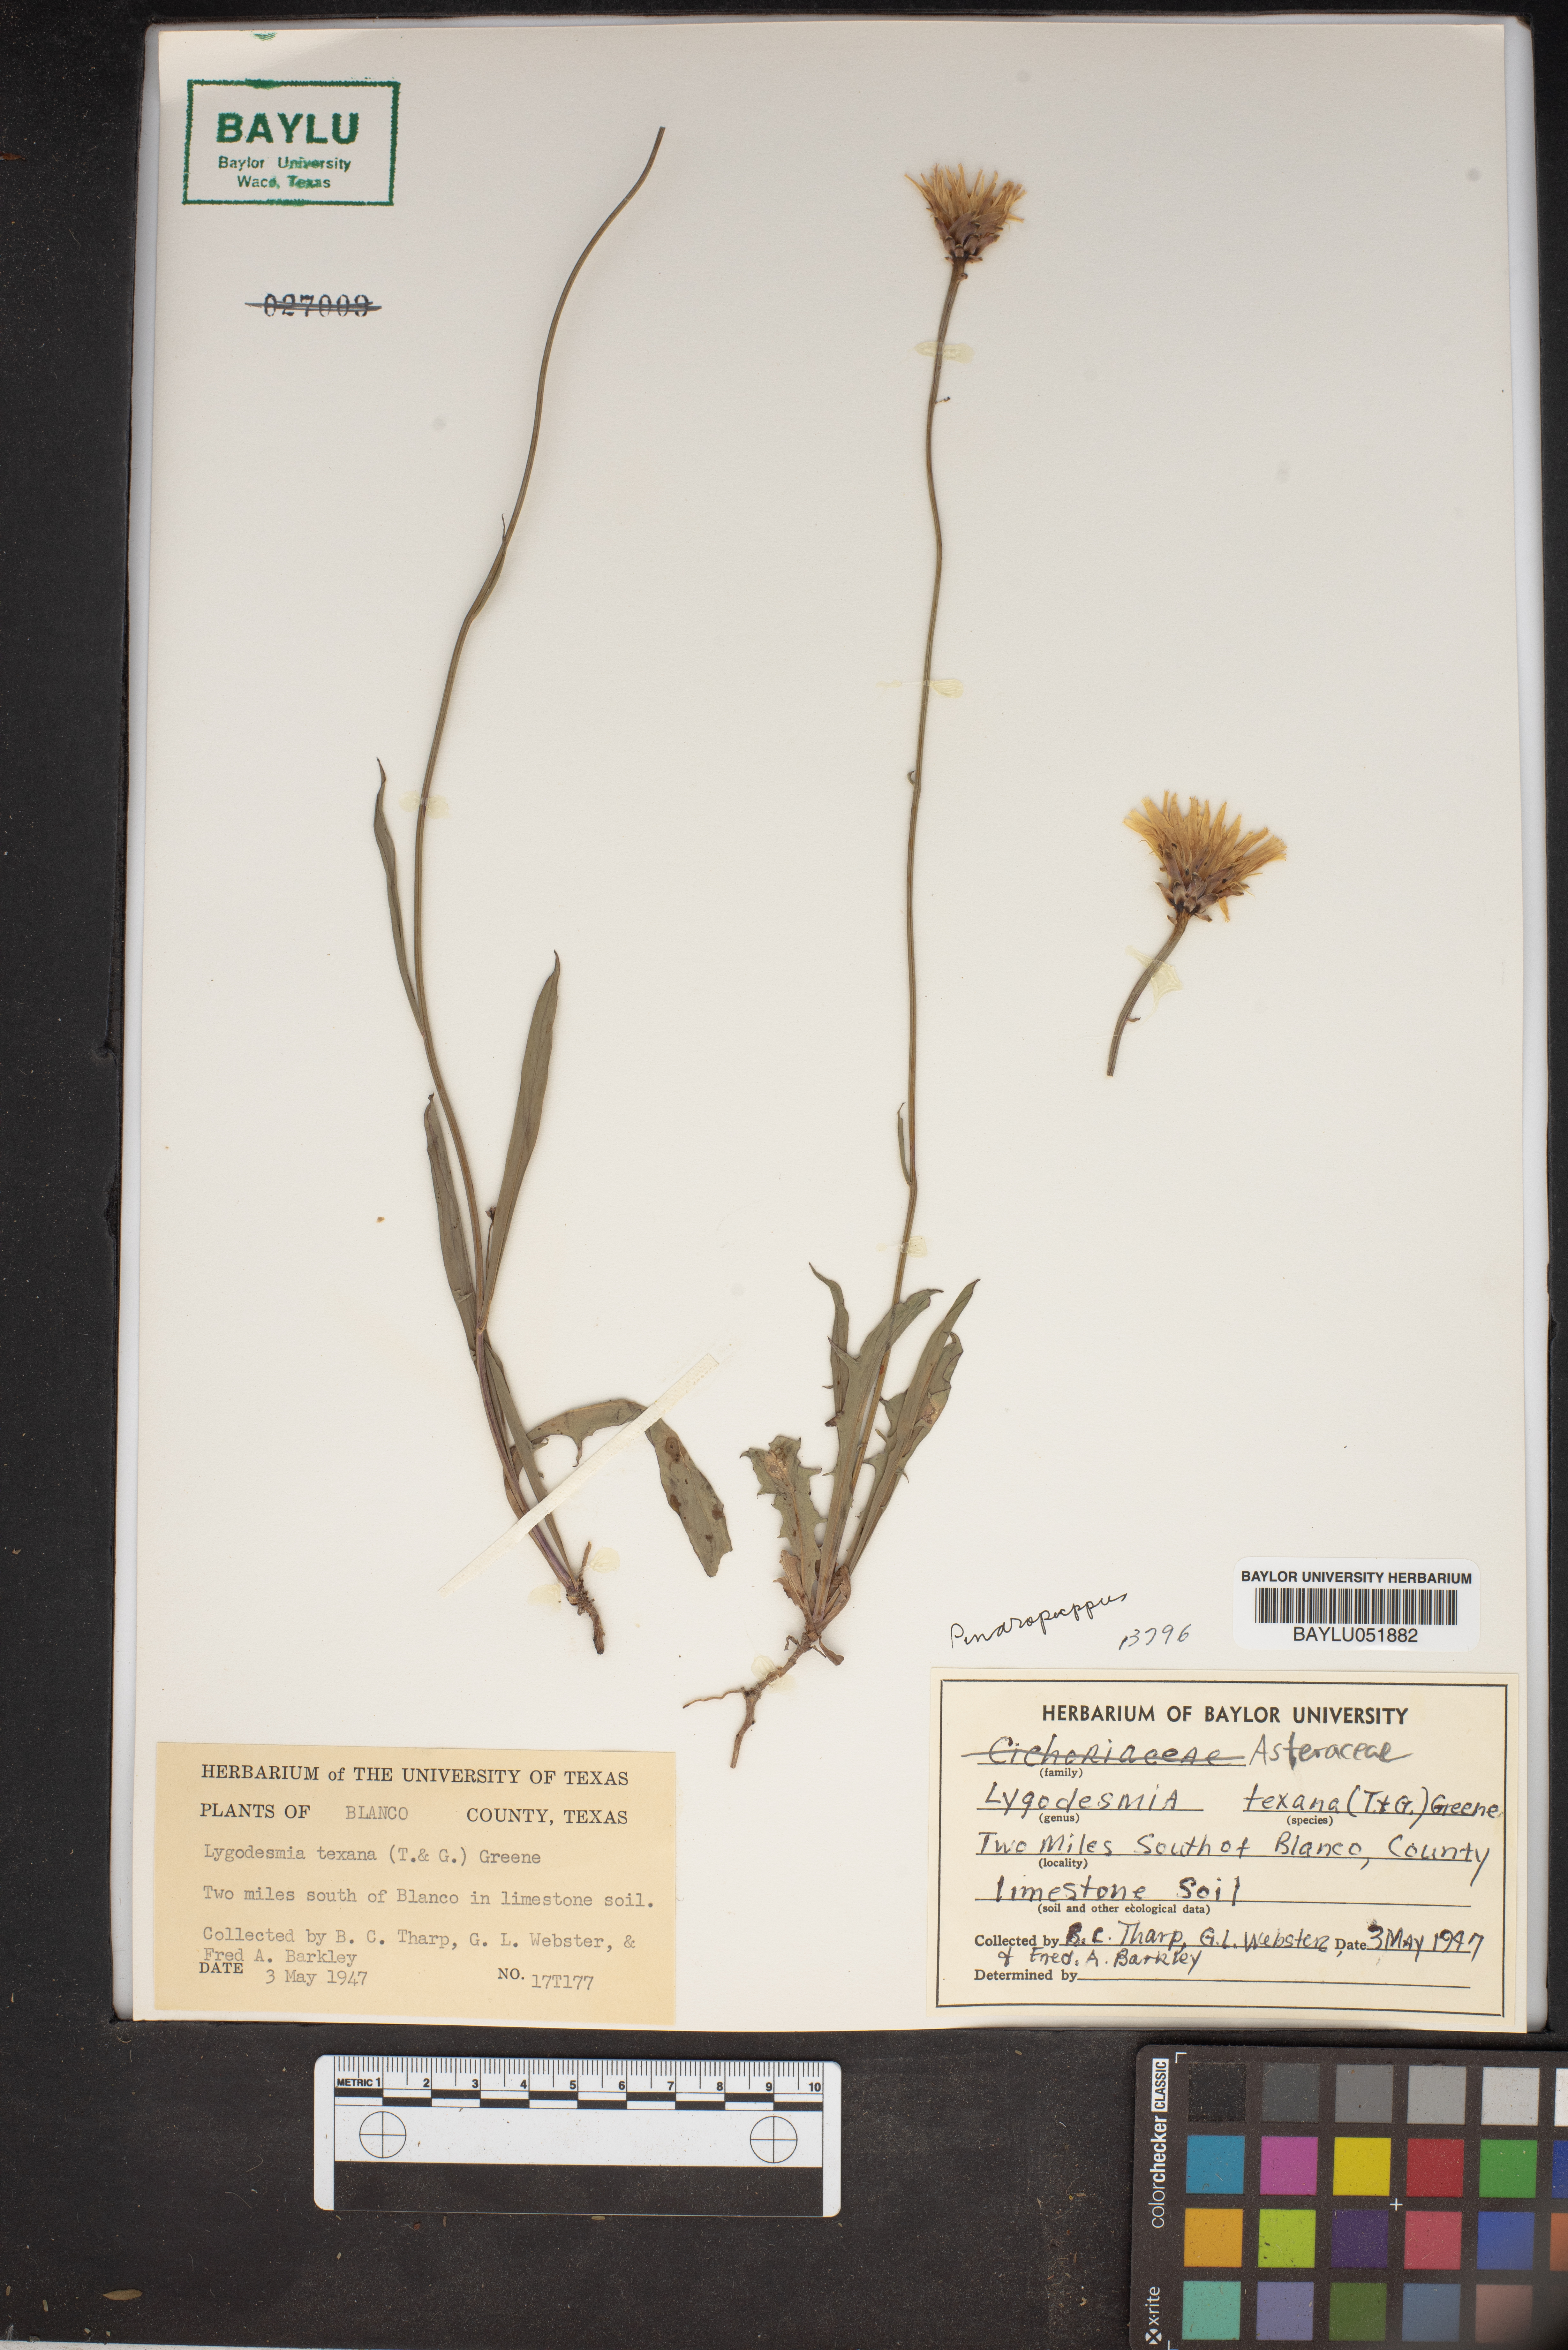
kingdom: Plantae
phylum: Tracheophyta
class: Magnoliopsida
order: Asterales
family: Asteraceae
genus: Lygodesmia
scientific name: Lygodesmia texana
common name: Texas skeleton-plant
